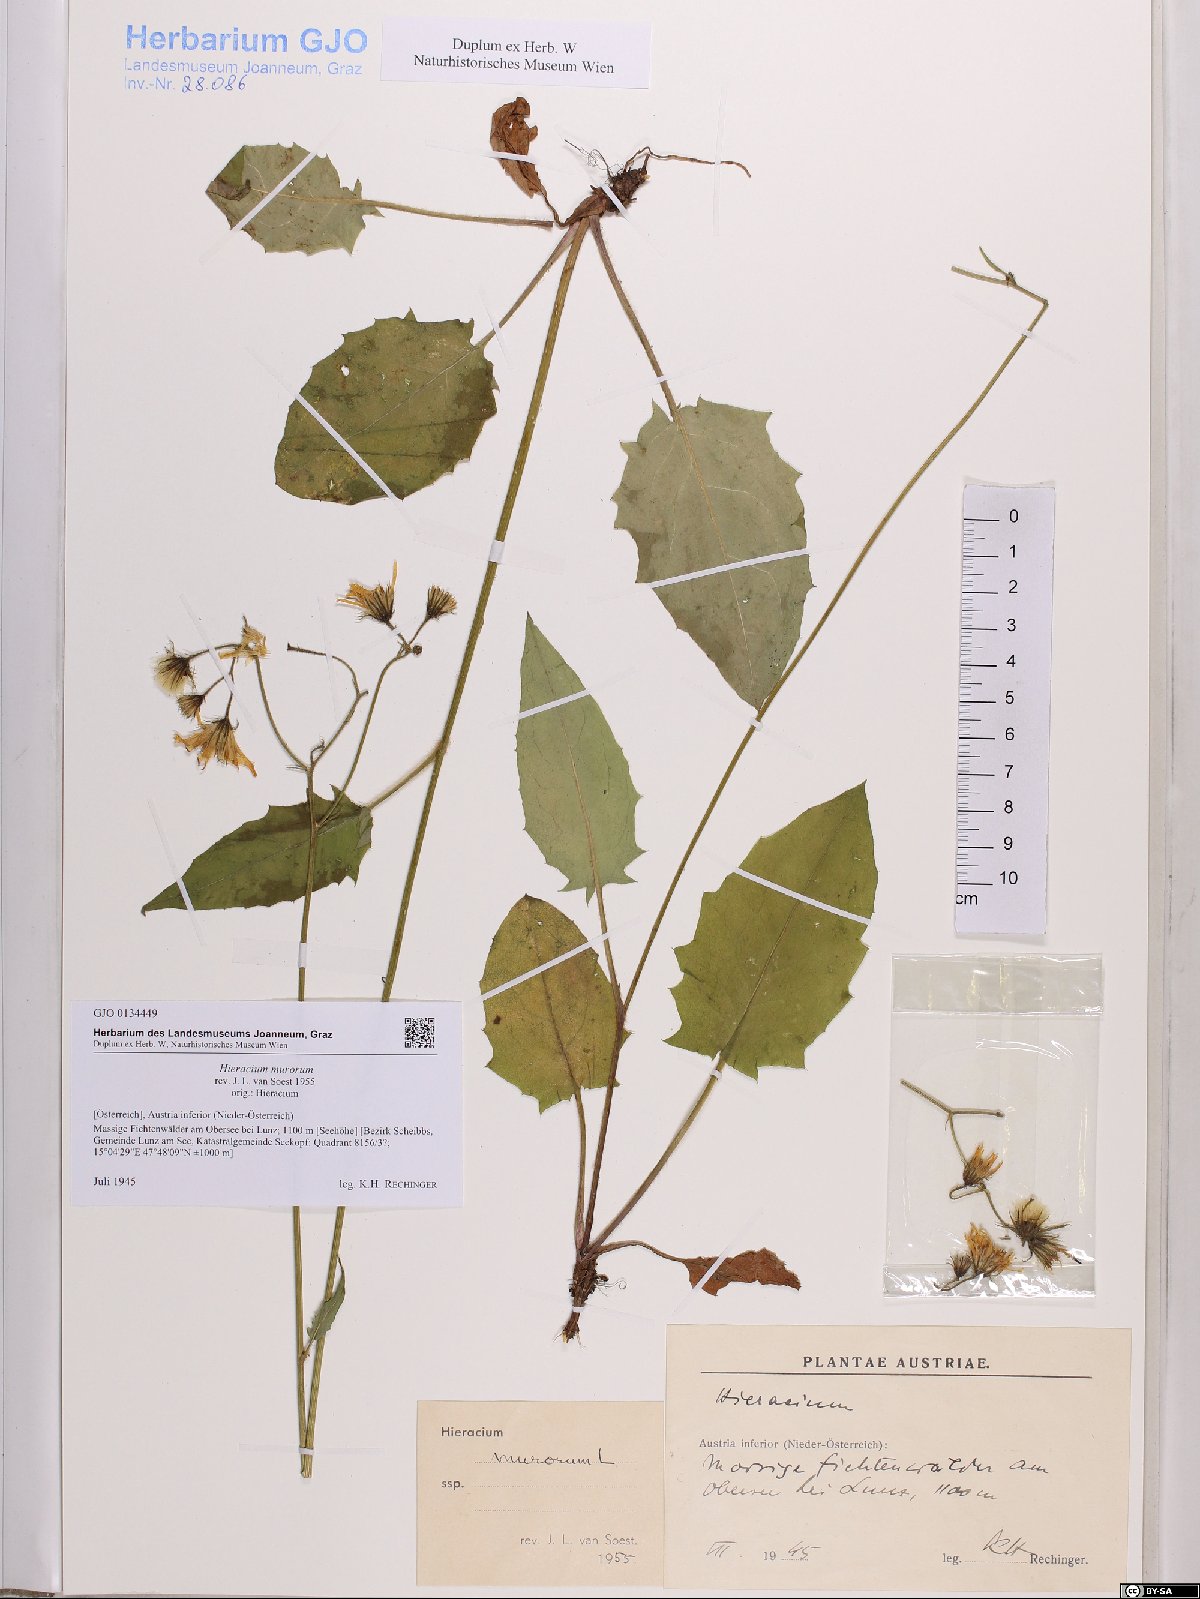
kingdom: Plantae
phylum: Tracheophyta
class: Magnoliopsida
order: Asterales
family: Asteraceae
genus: Hieracium
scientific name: Hieracium murorum
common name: Wall hawkweed
